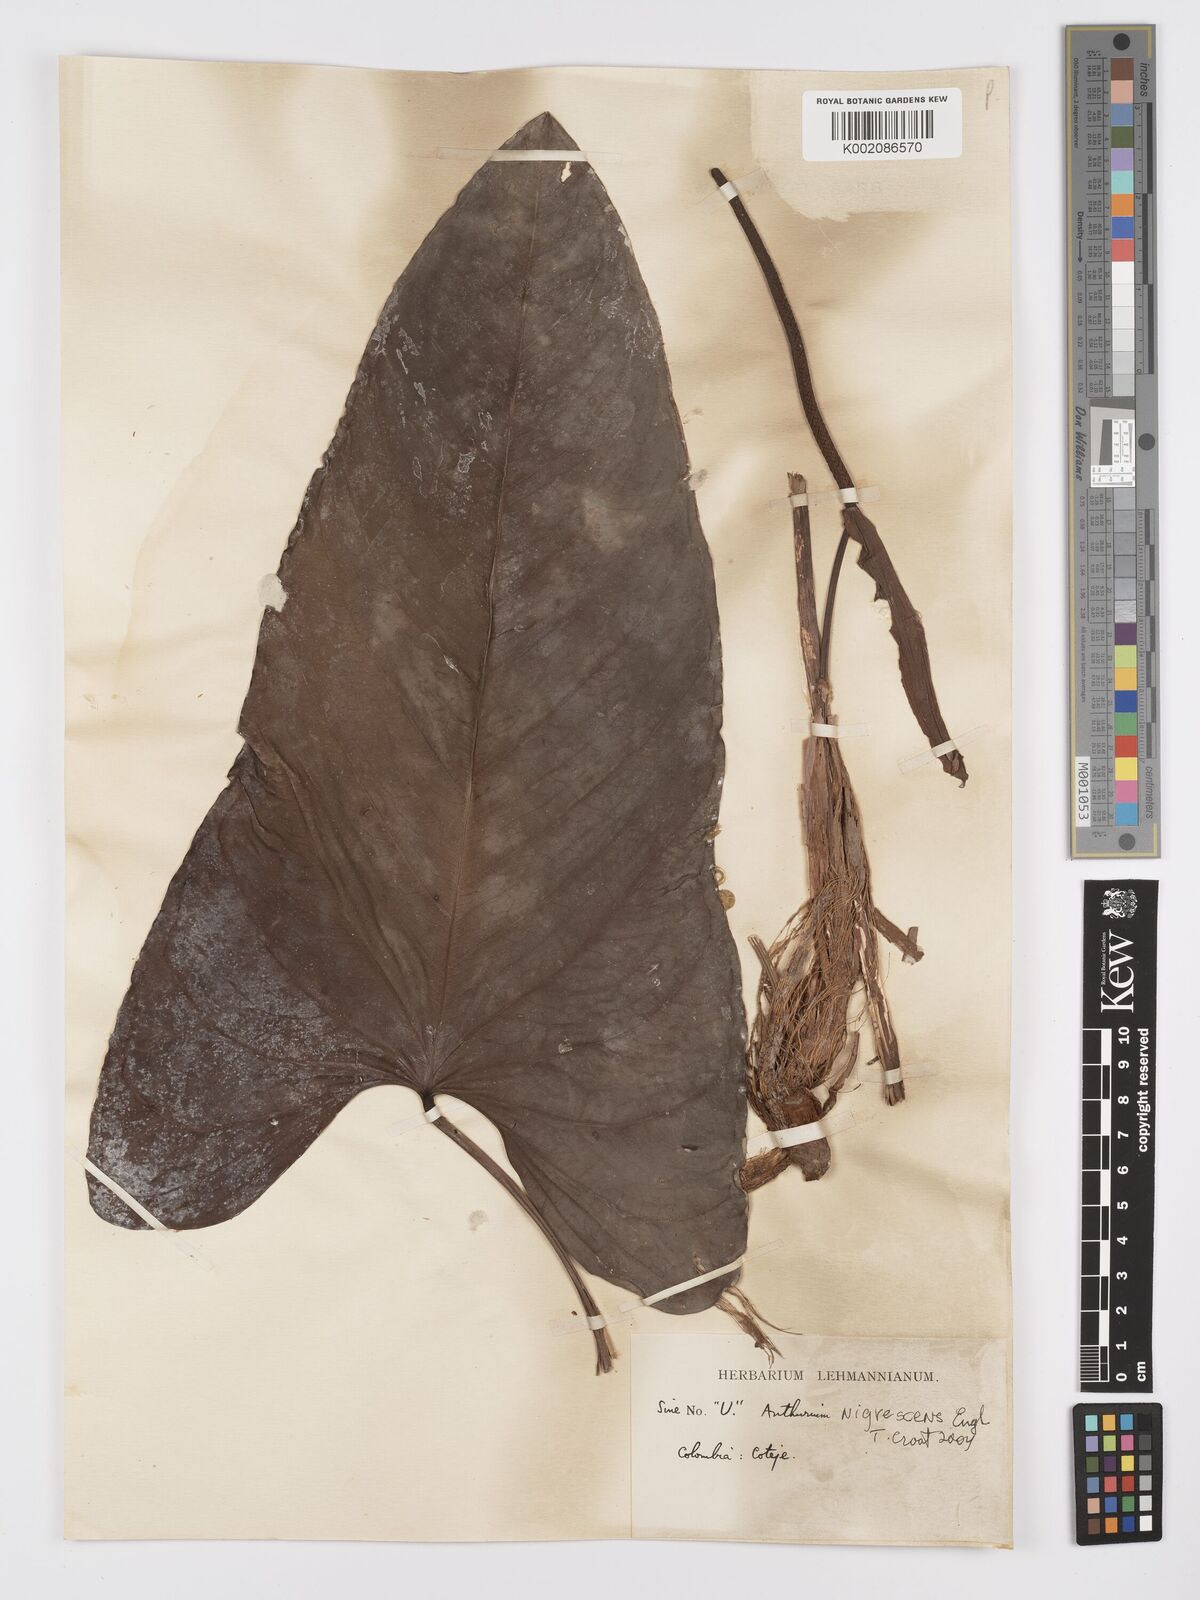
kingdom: Plantae
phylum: Tracheophyta
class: Liliopsida
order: Alismatales
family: Araceae
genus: Anthurium
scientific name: Anthurium nigrescens
